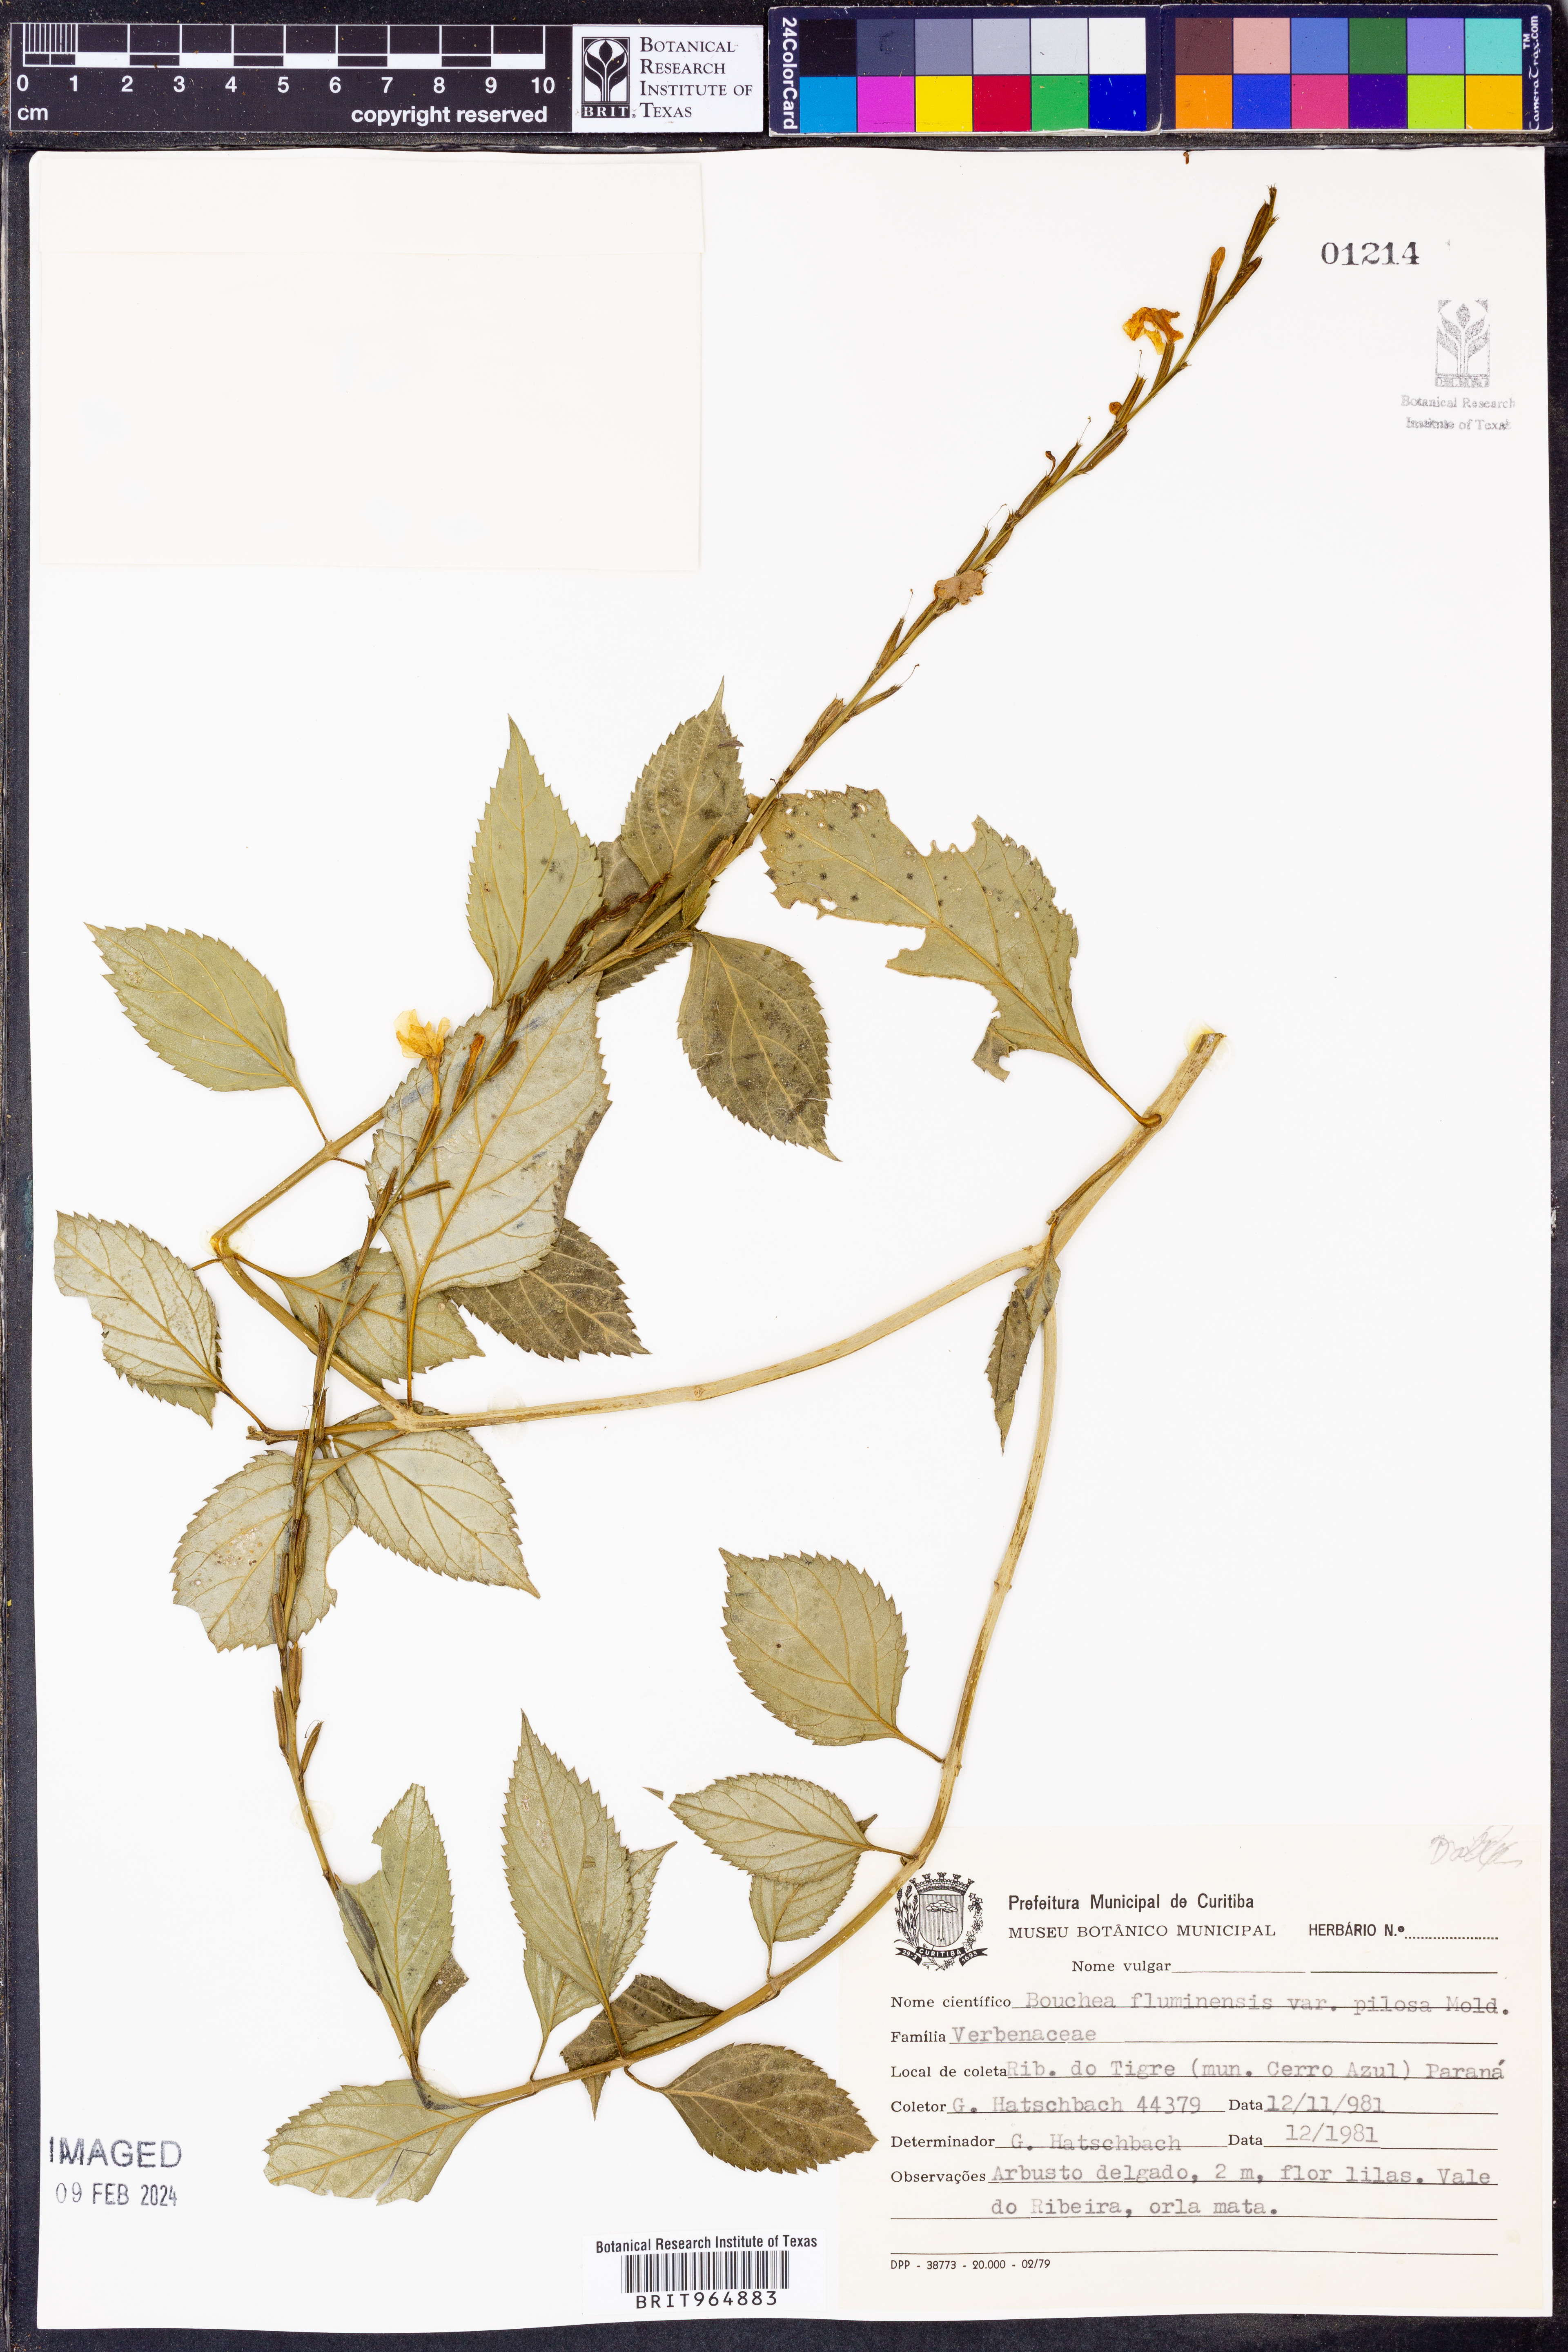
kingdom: Plantae
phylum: Tracheophyta
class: Magnoliopsida
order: Lamiales
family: Verbenaceae
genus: Bouchea
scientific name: Bouchea
